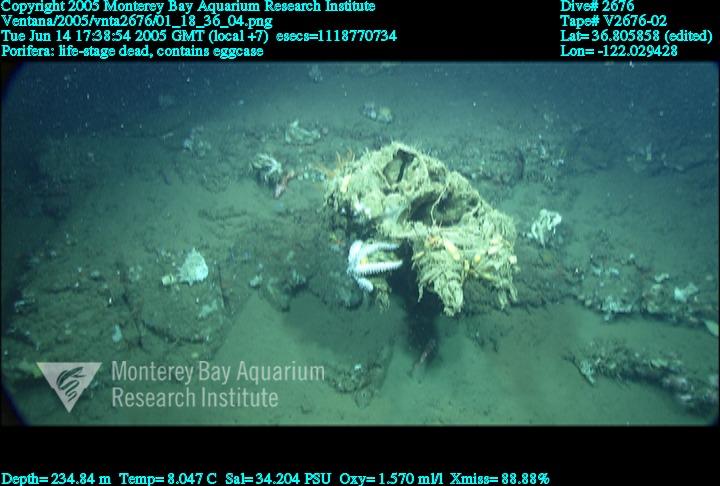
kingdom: Animalia
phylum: Porifera
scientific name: Porifera
